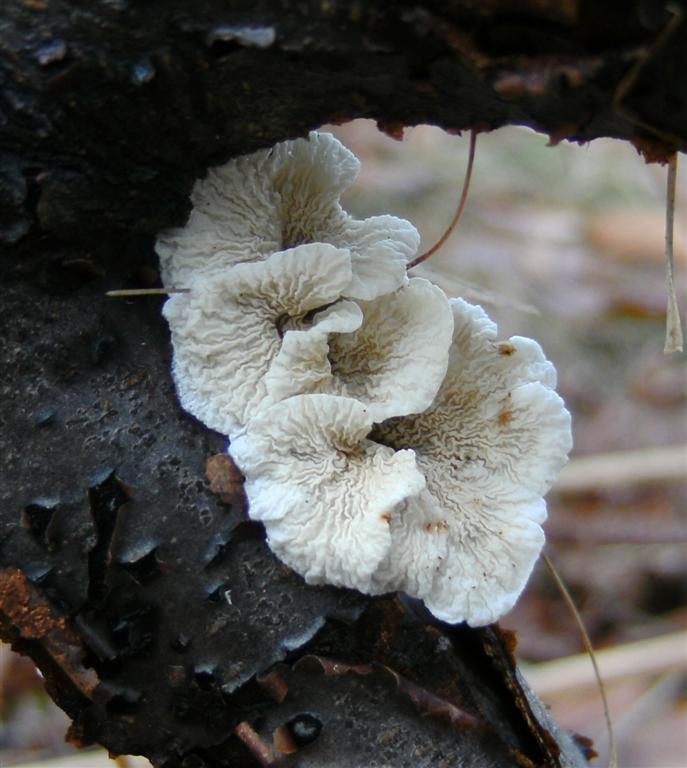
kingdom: Fungi
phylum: Basidiomycota
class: Agaricomycetes
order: Amylocorticiales
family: Amylocorticiaceae
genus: Plicaturopsis
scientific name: Plicaturopsis crispa
